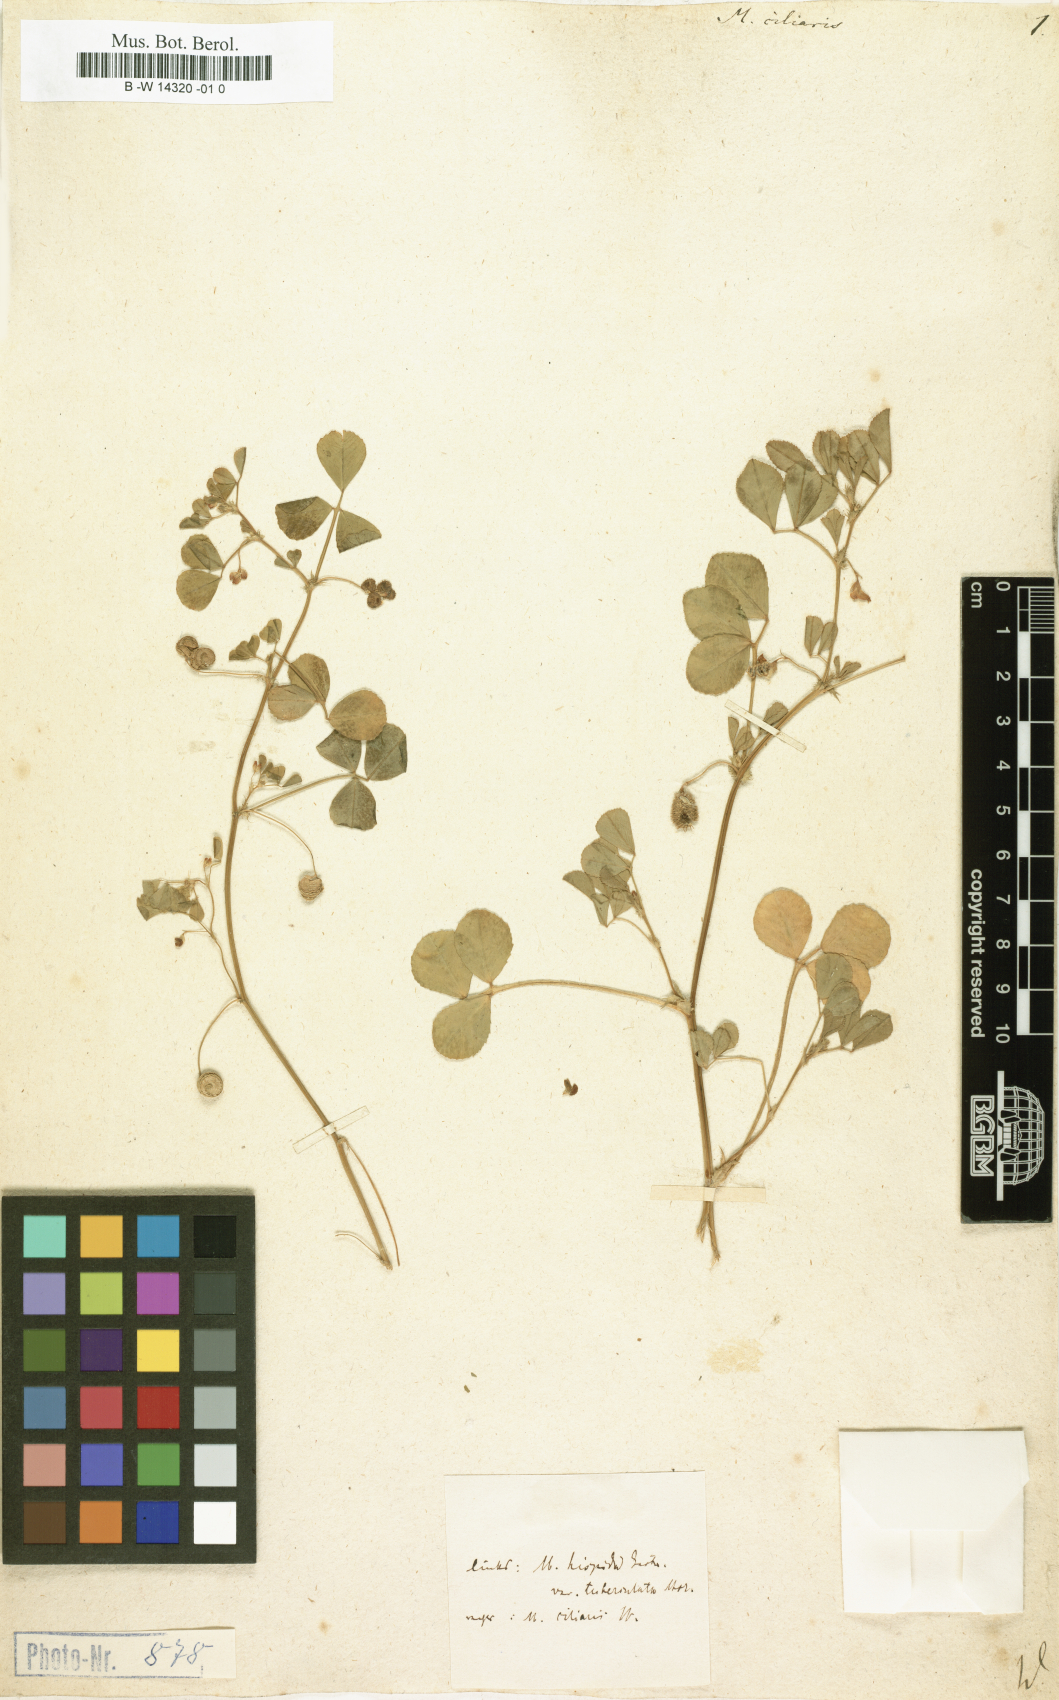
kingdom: Plantae
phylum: Tracheophyta
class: Magnoliopsida
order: Fabales
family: Fabaceae
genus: Medicago
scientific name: Medicago ciliaris
